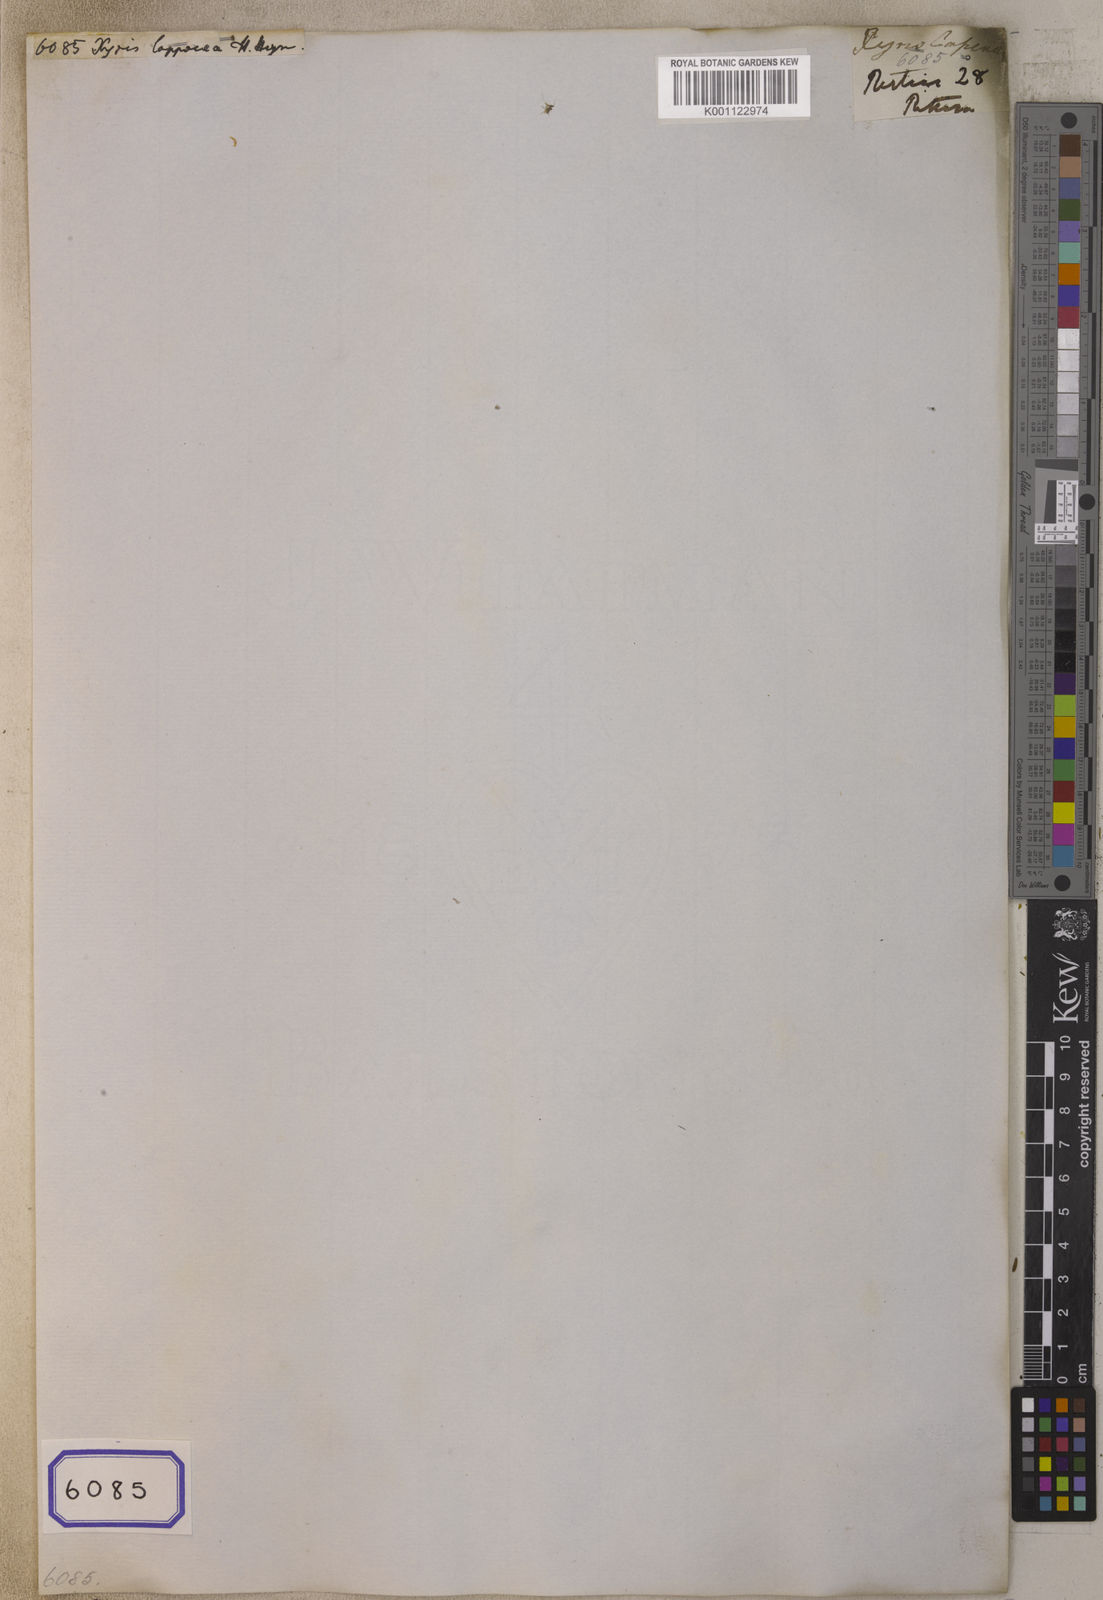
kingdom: Plantae
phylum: Tracheophyta
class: Liliopsida
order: Poales
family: Xyridaceae
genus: Xyris
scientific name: Xyris anceps
